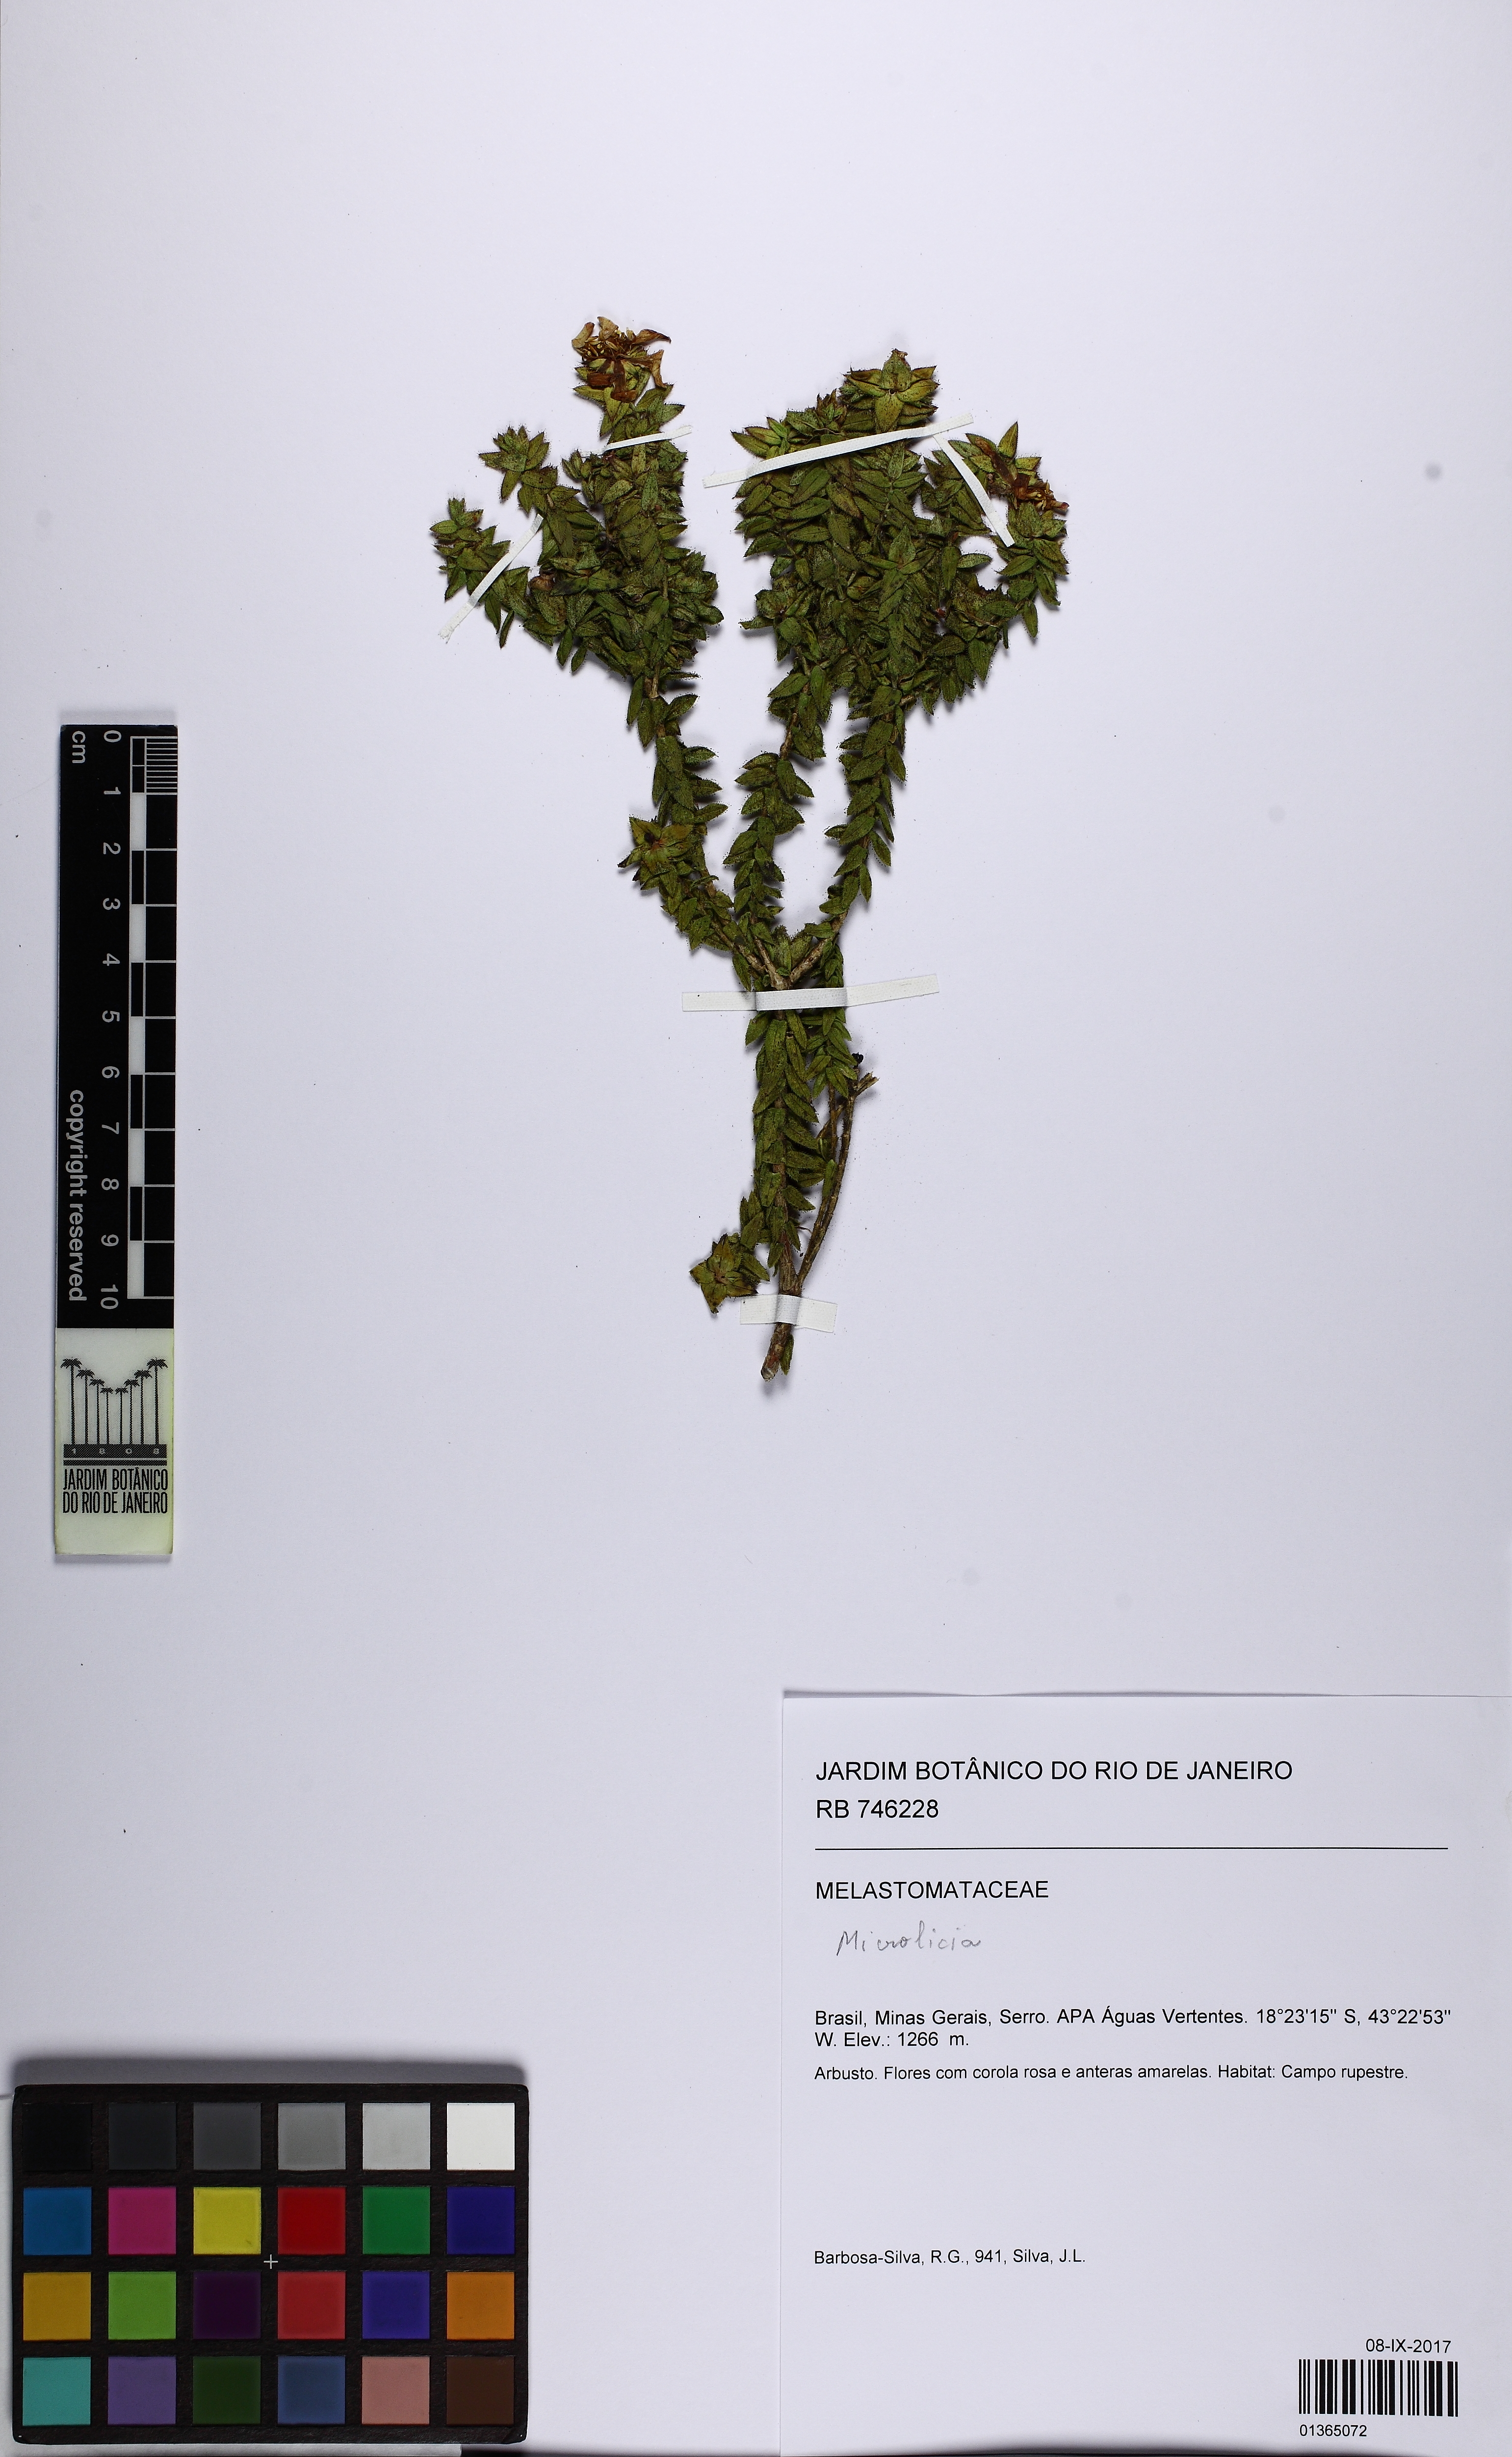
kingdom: Plantae
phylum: Tracheophyta
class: Magnoliopsida
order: Myrtales
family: Melastomataceae
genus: Microlicia
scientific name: Microlicia mucorifera
